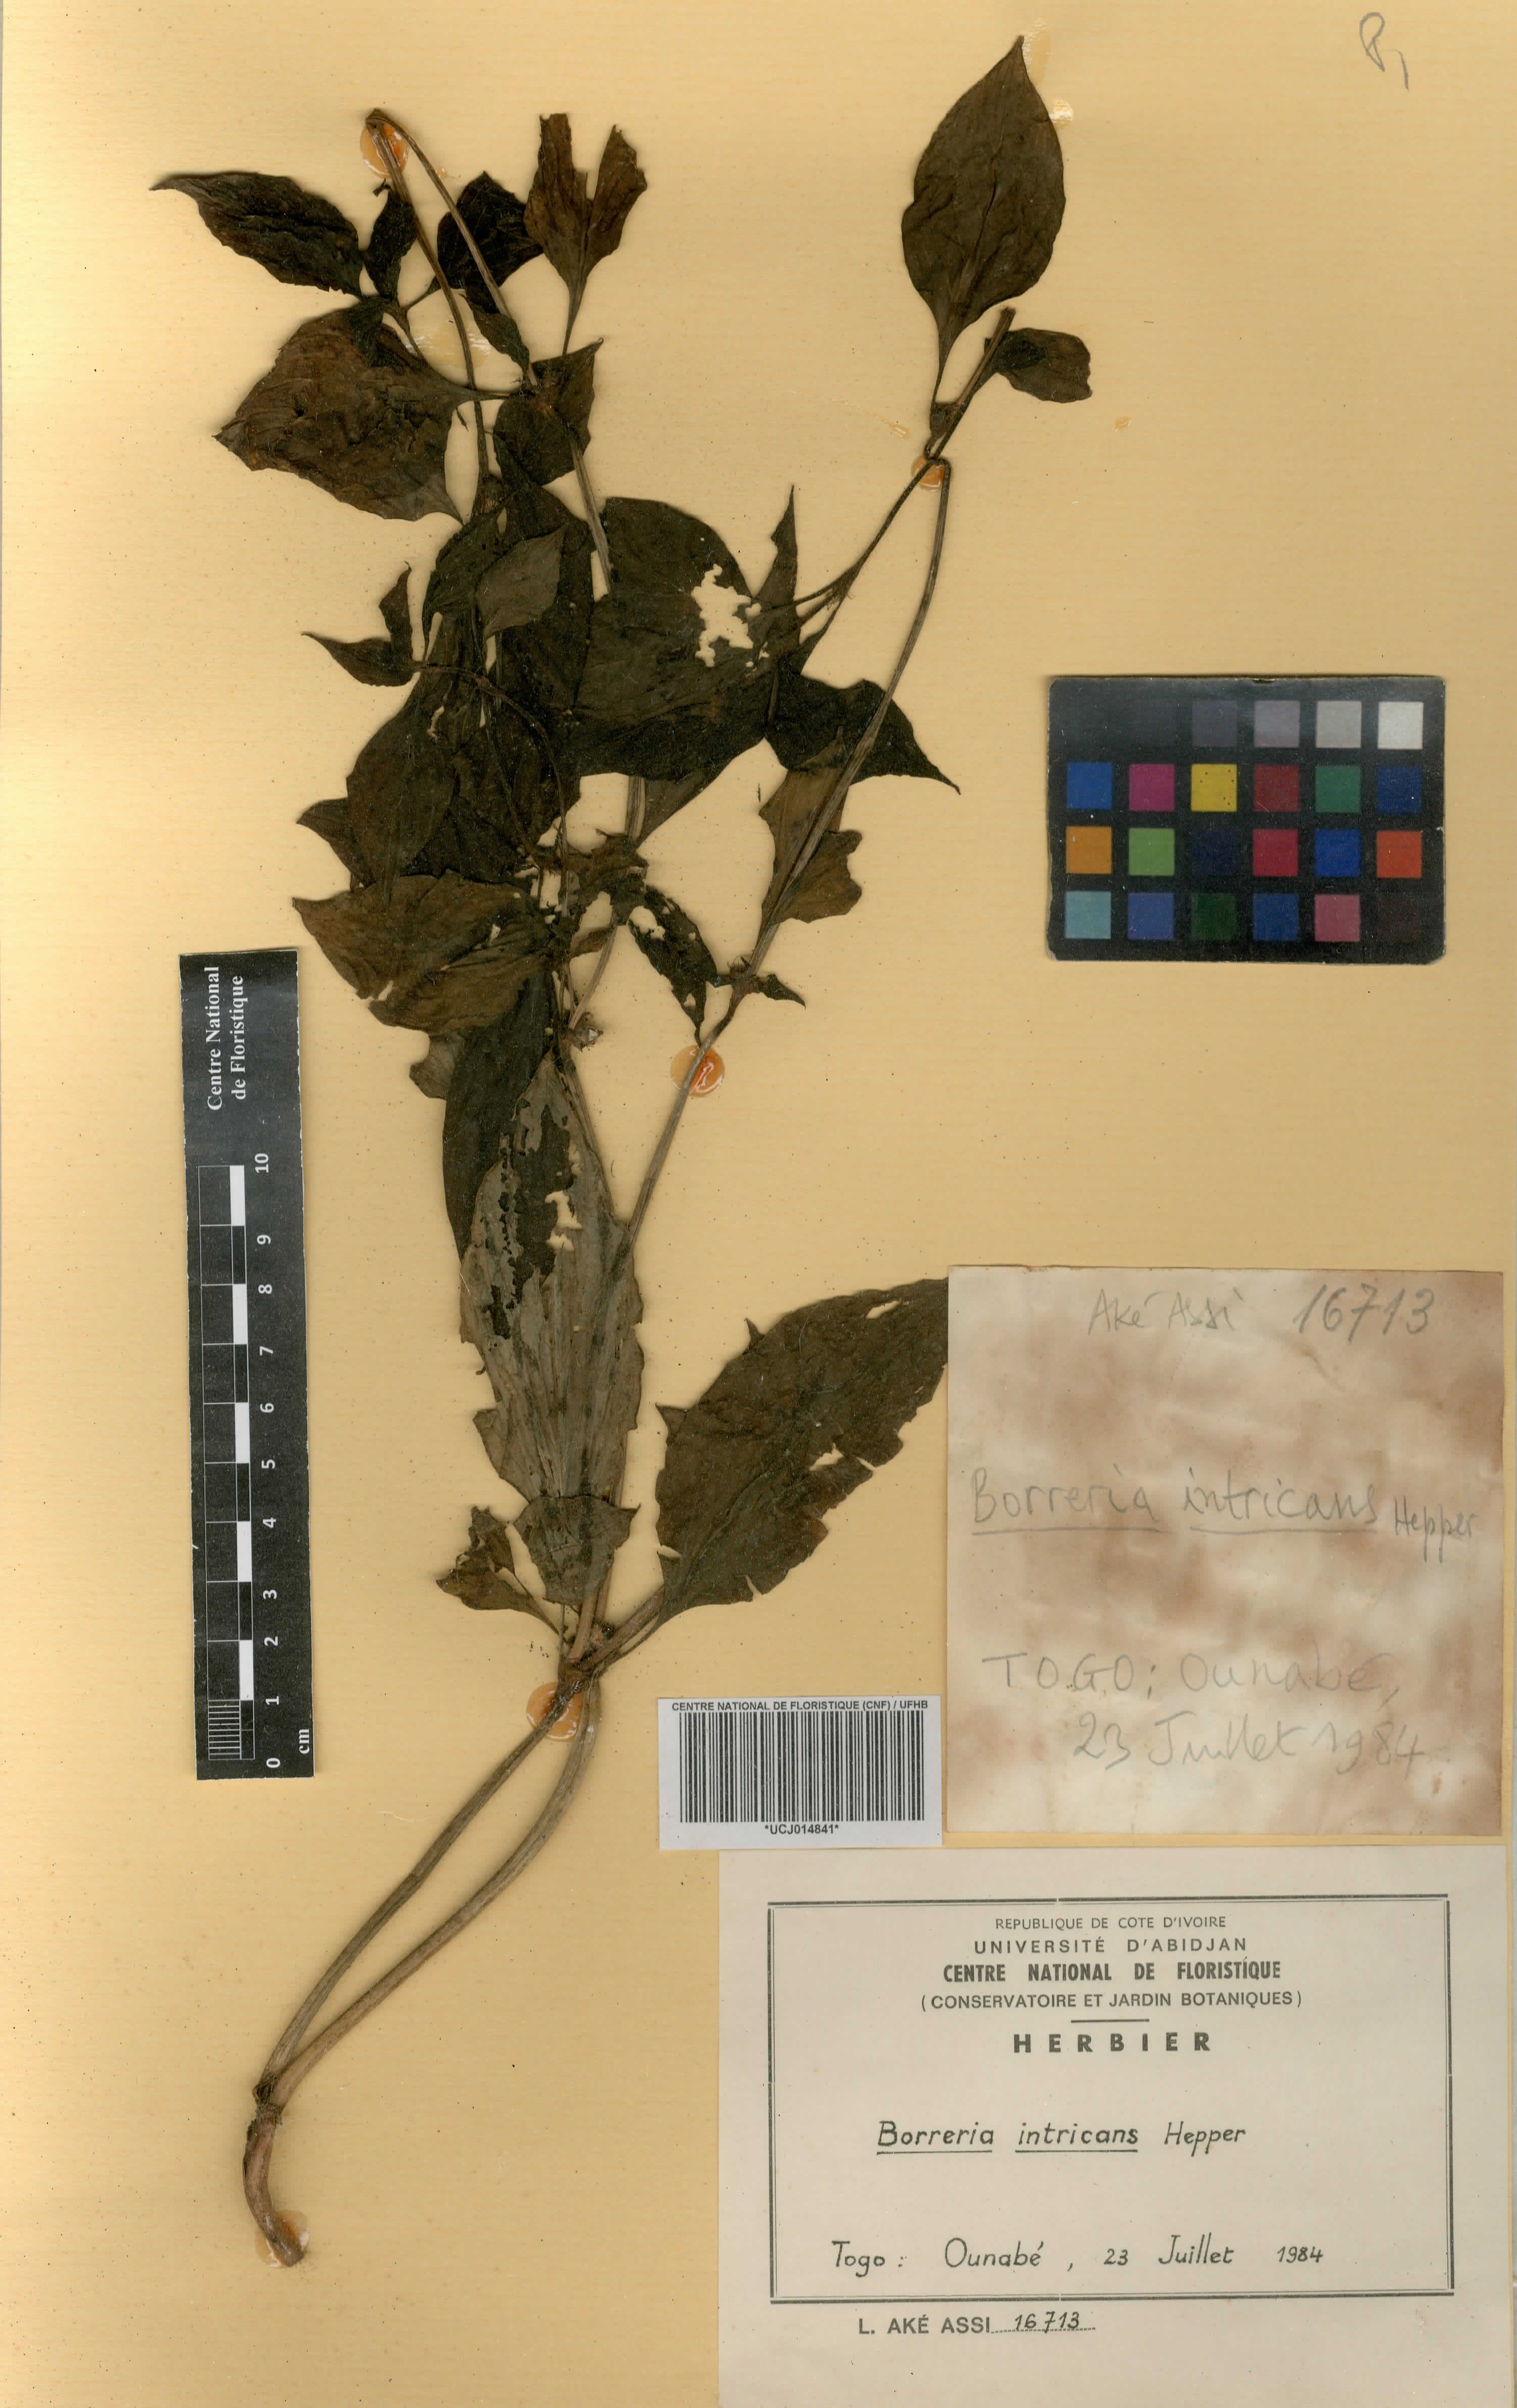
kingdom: Plantae
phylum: Tracheophyta
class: Magnoliopsida
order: Gentianales
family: Rubiaceae
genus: Spermacoce
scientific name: Spermacoce intricans
